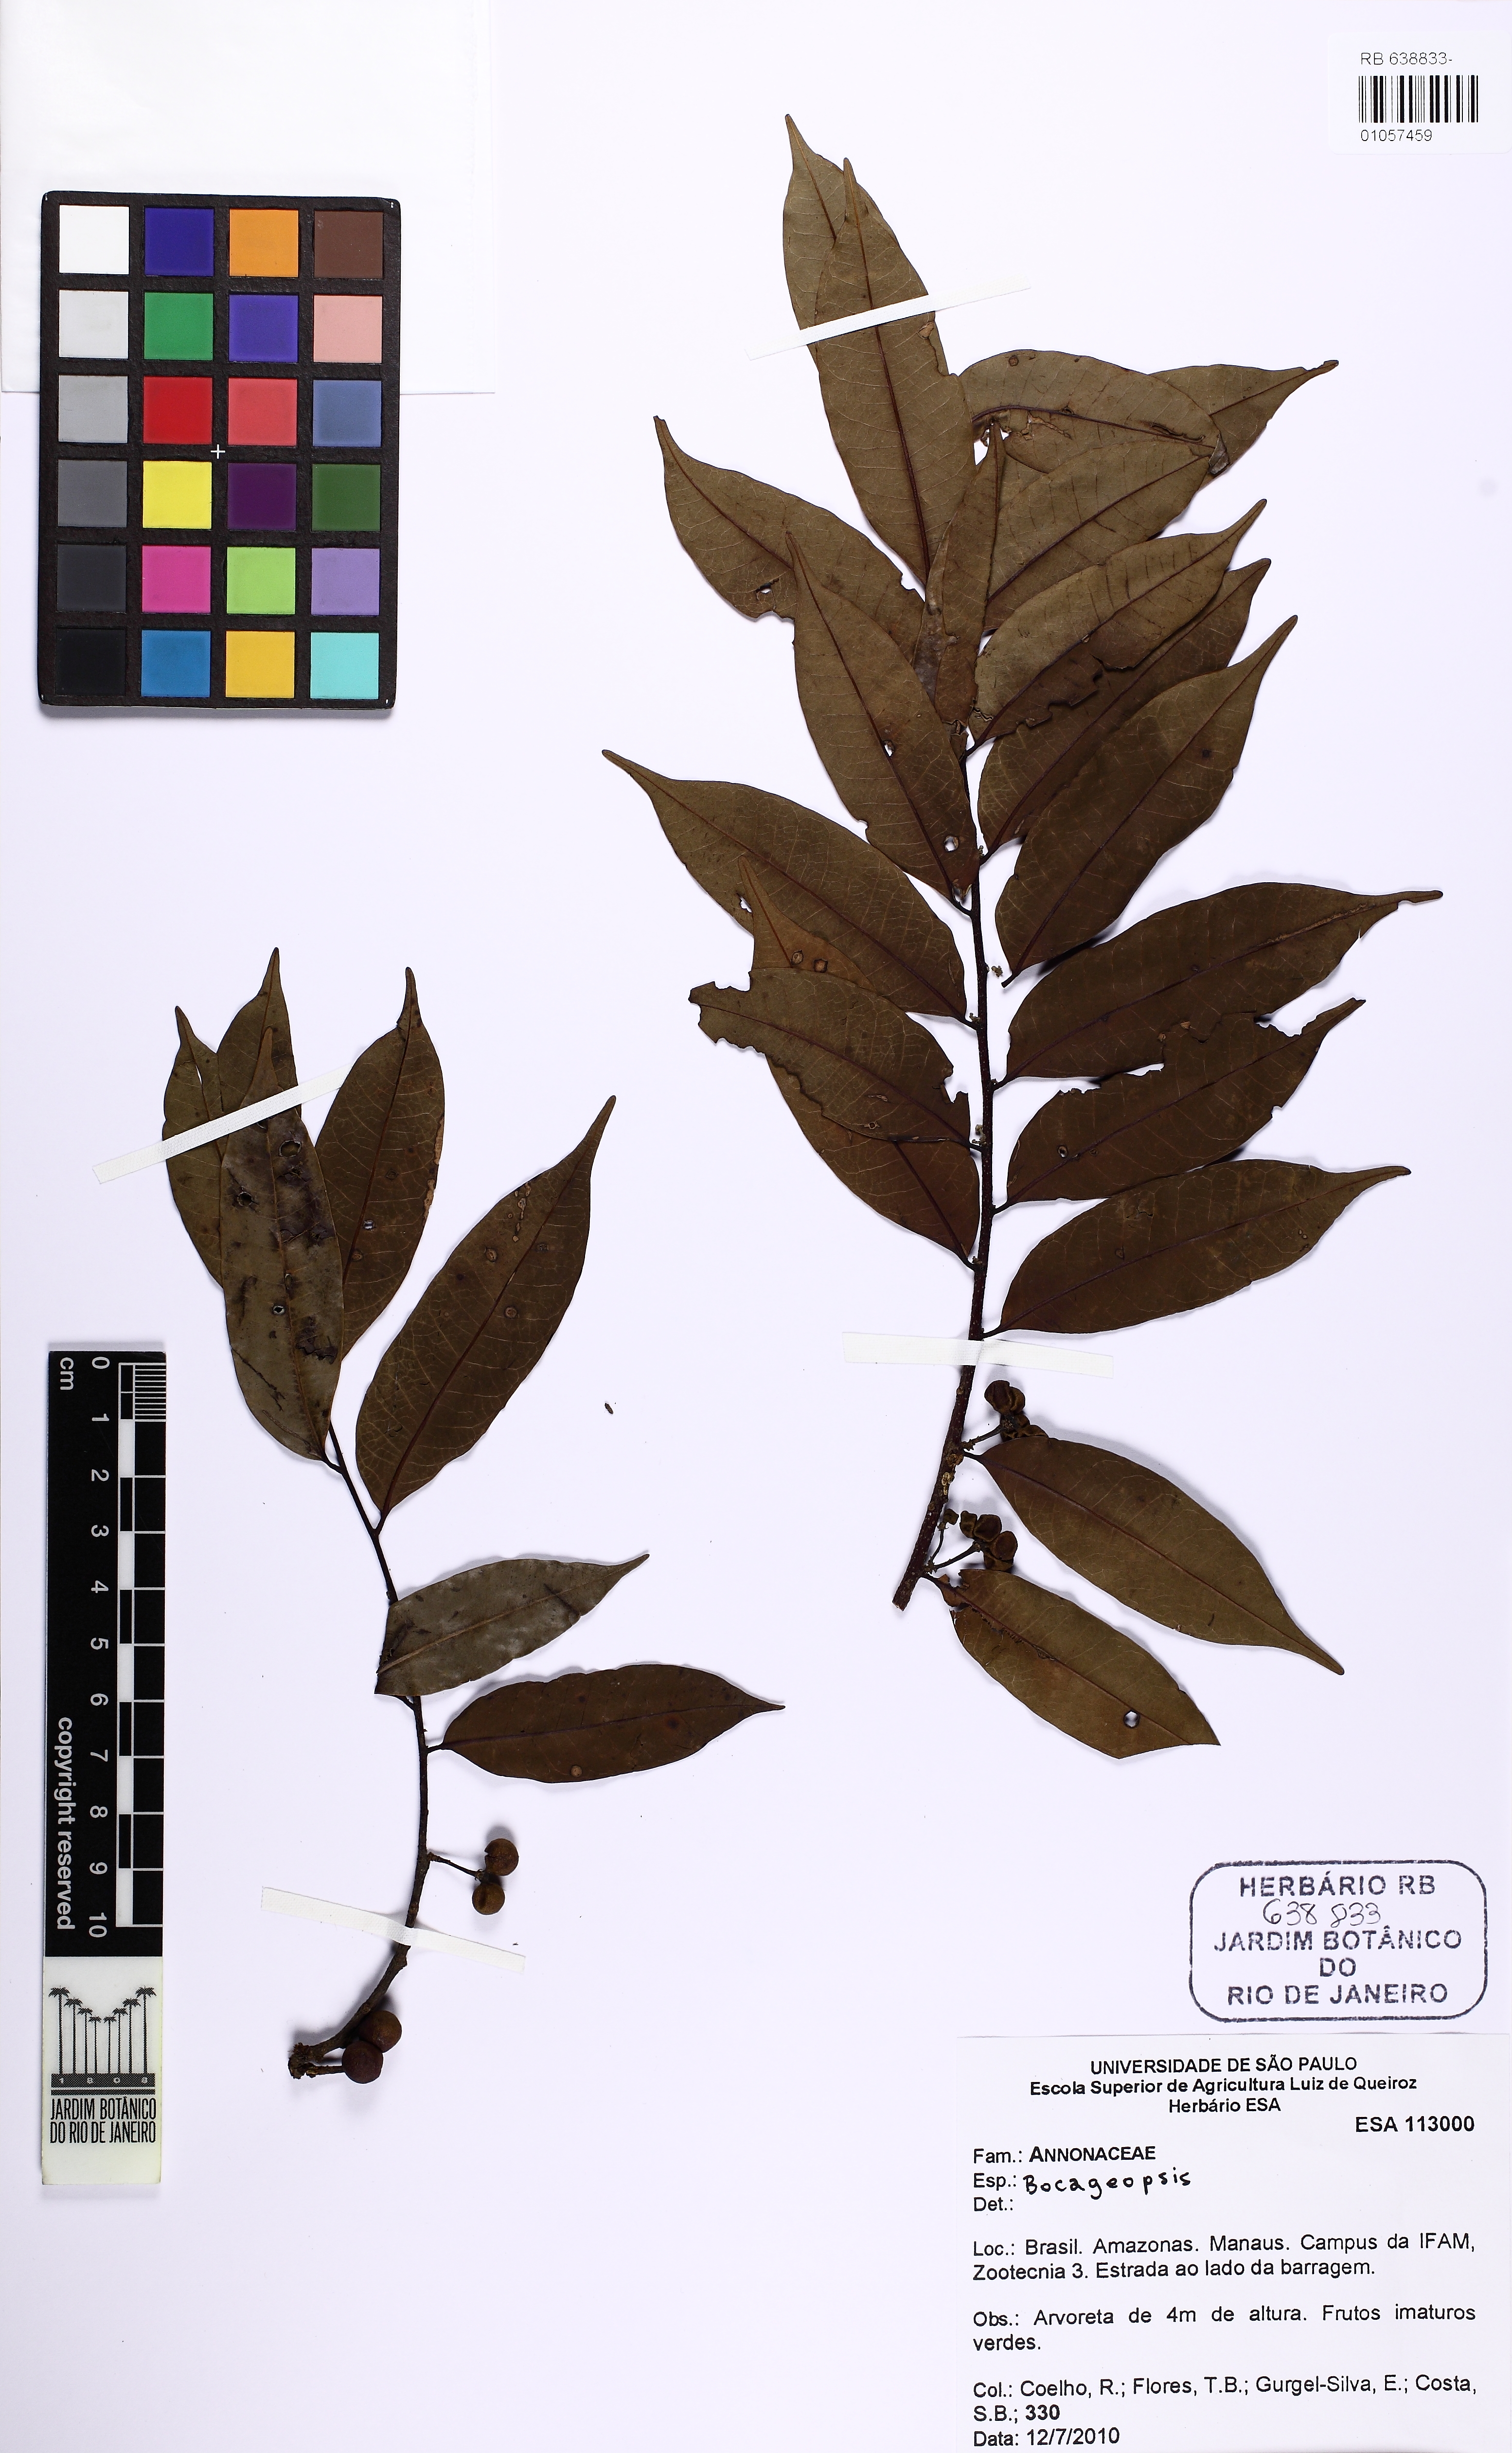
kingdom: Plantae
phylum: Tracheophyta
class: Magnoliopsida
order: Magnoliales
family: Annonaceae
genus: Bocageopsis
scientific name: Bocageopsis multiflora
